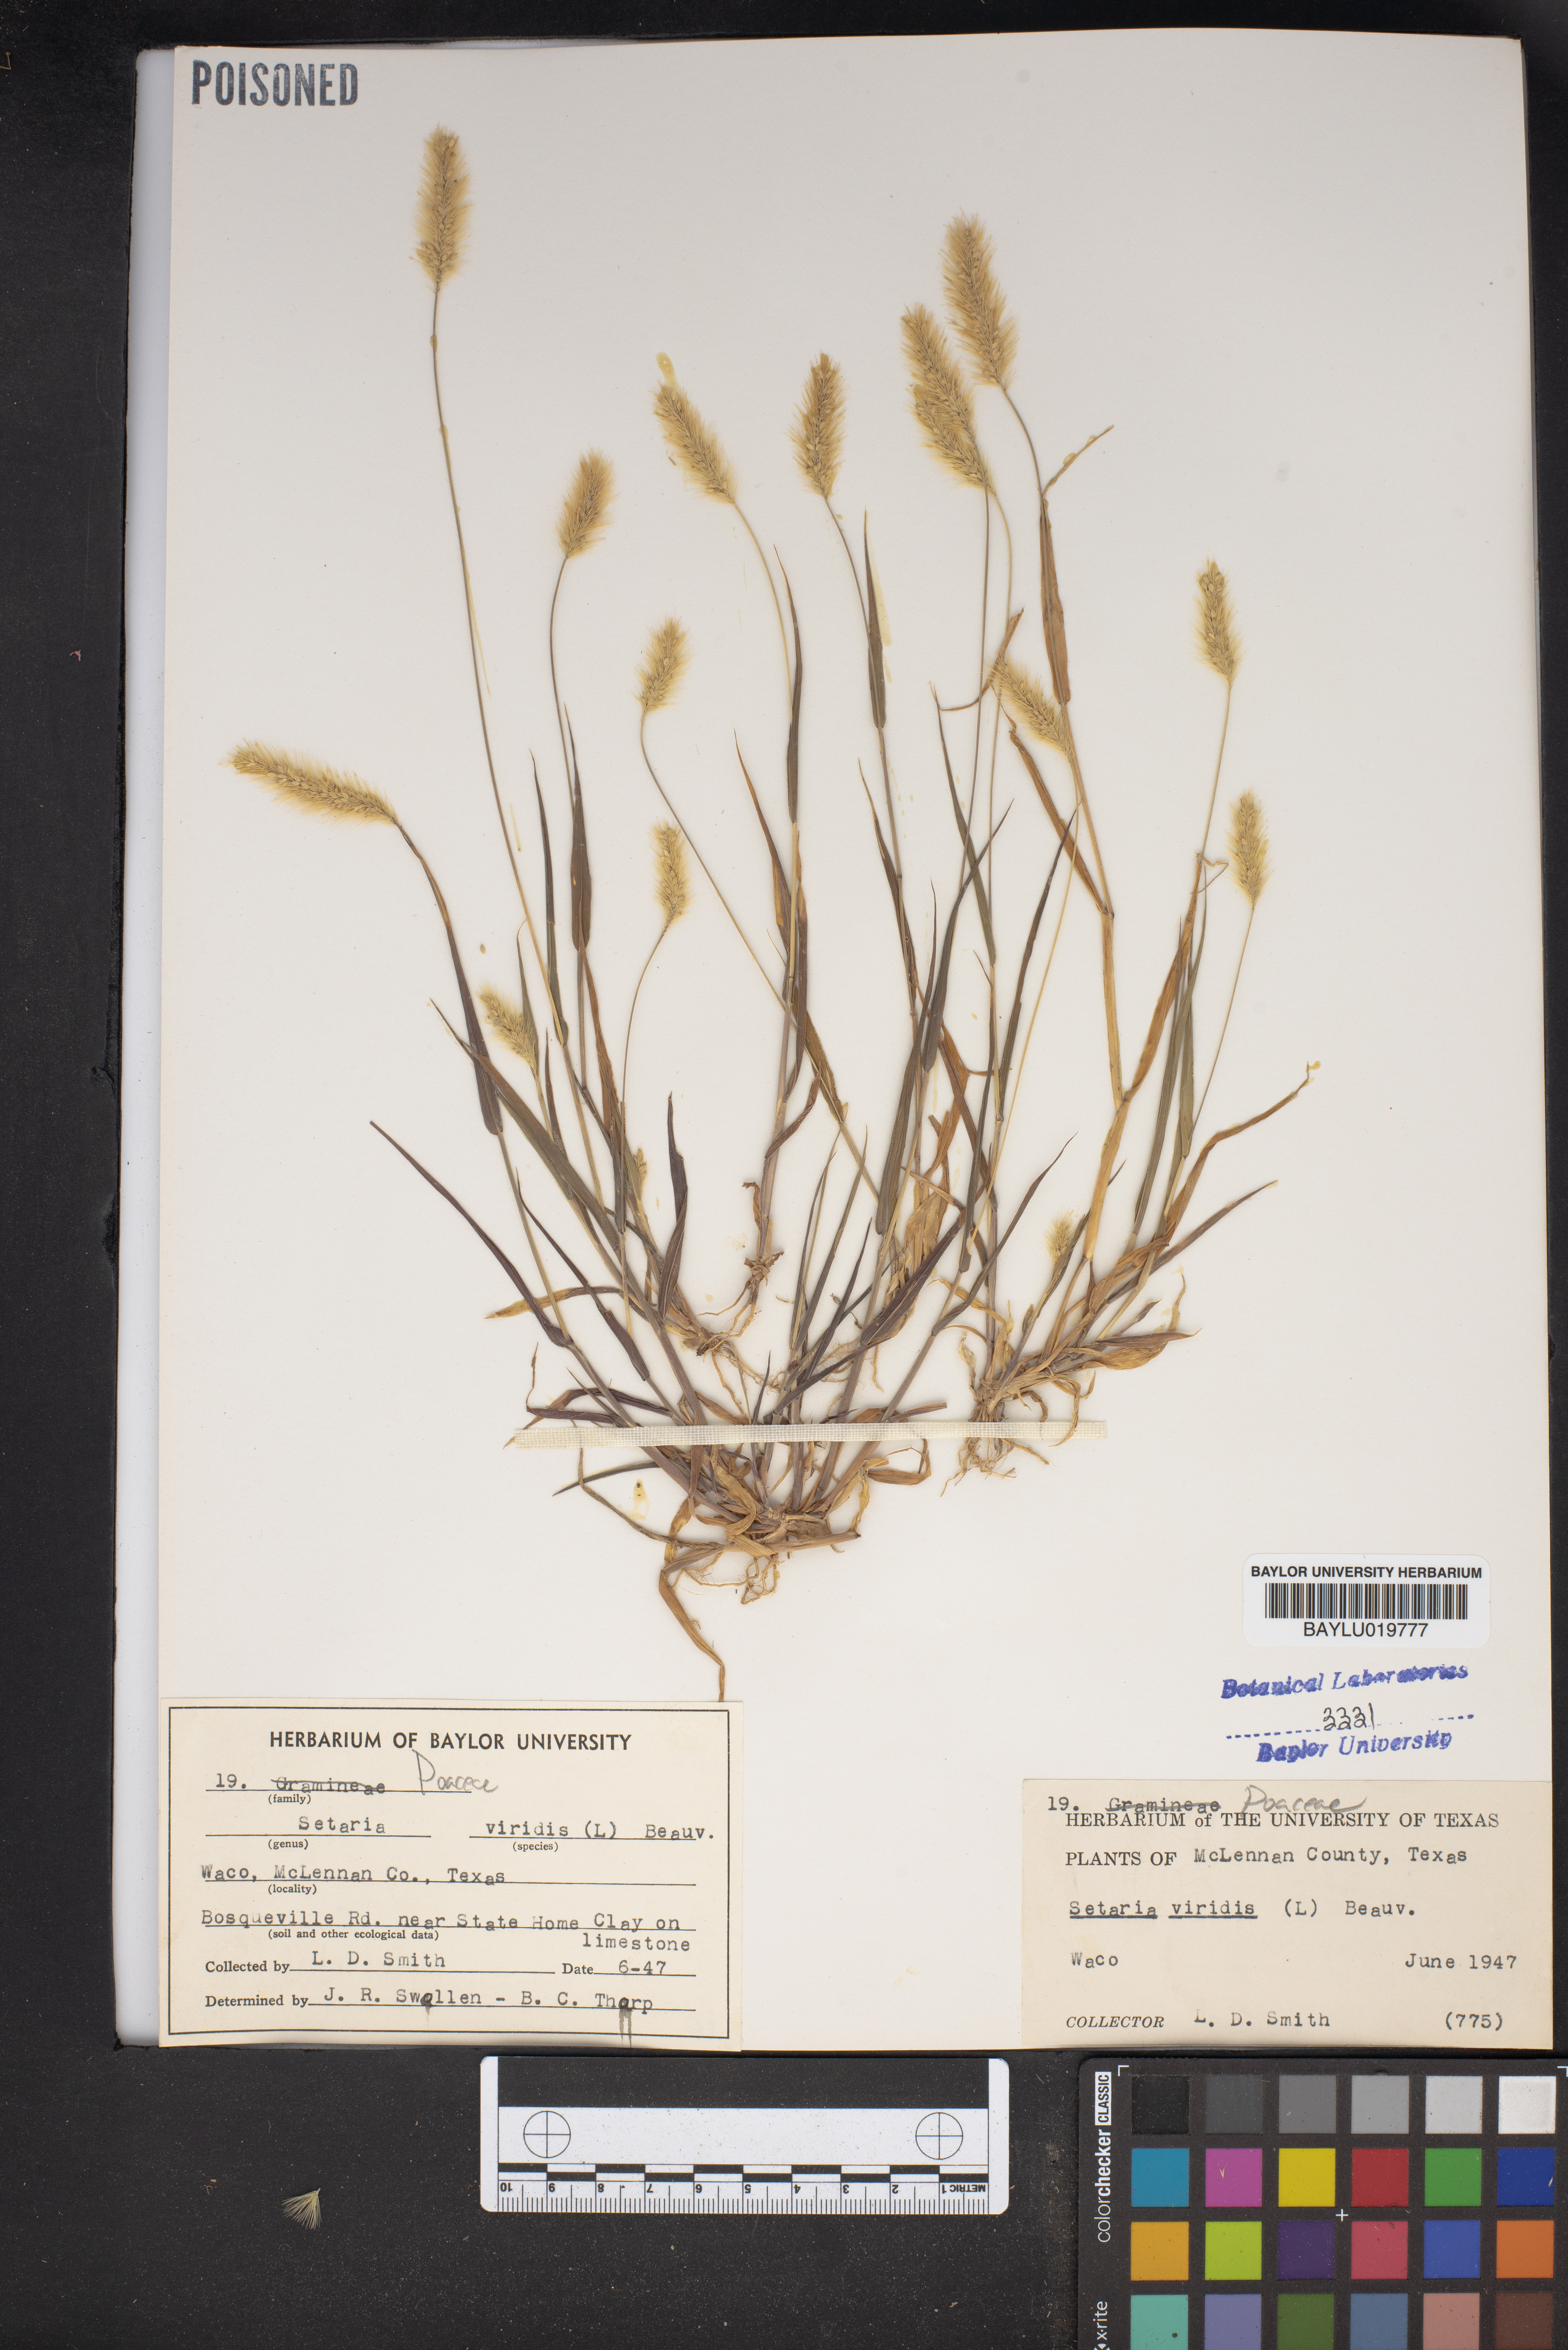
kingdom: Plantae
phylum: Tracheophyta
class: Liliopsida
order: Poales
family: Poaceae
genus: Setaria
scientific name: Setaria viridis
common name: Green bristlegrass
